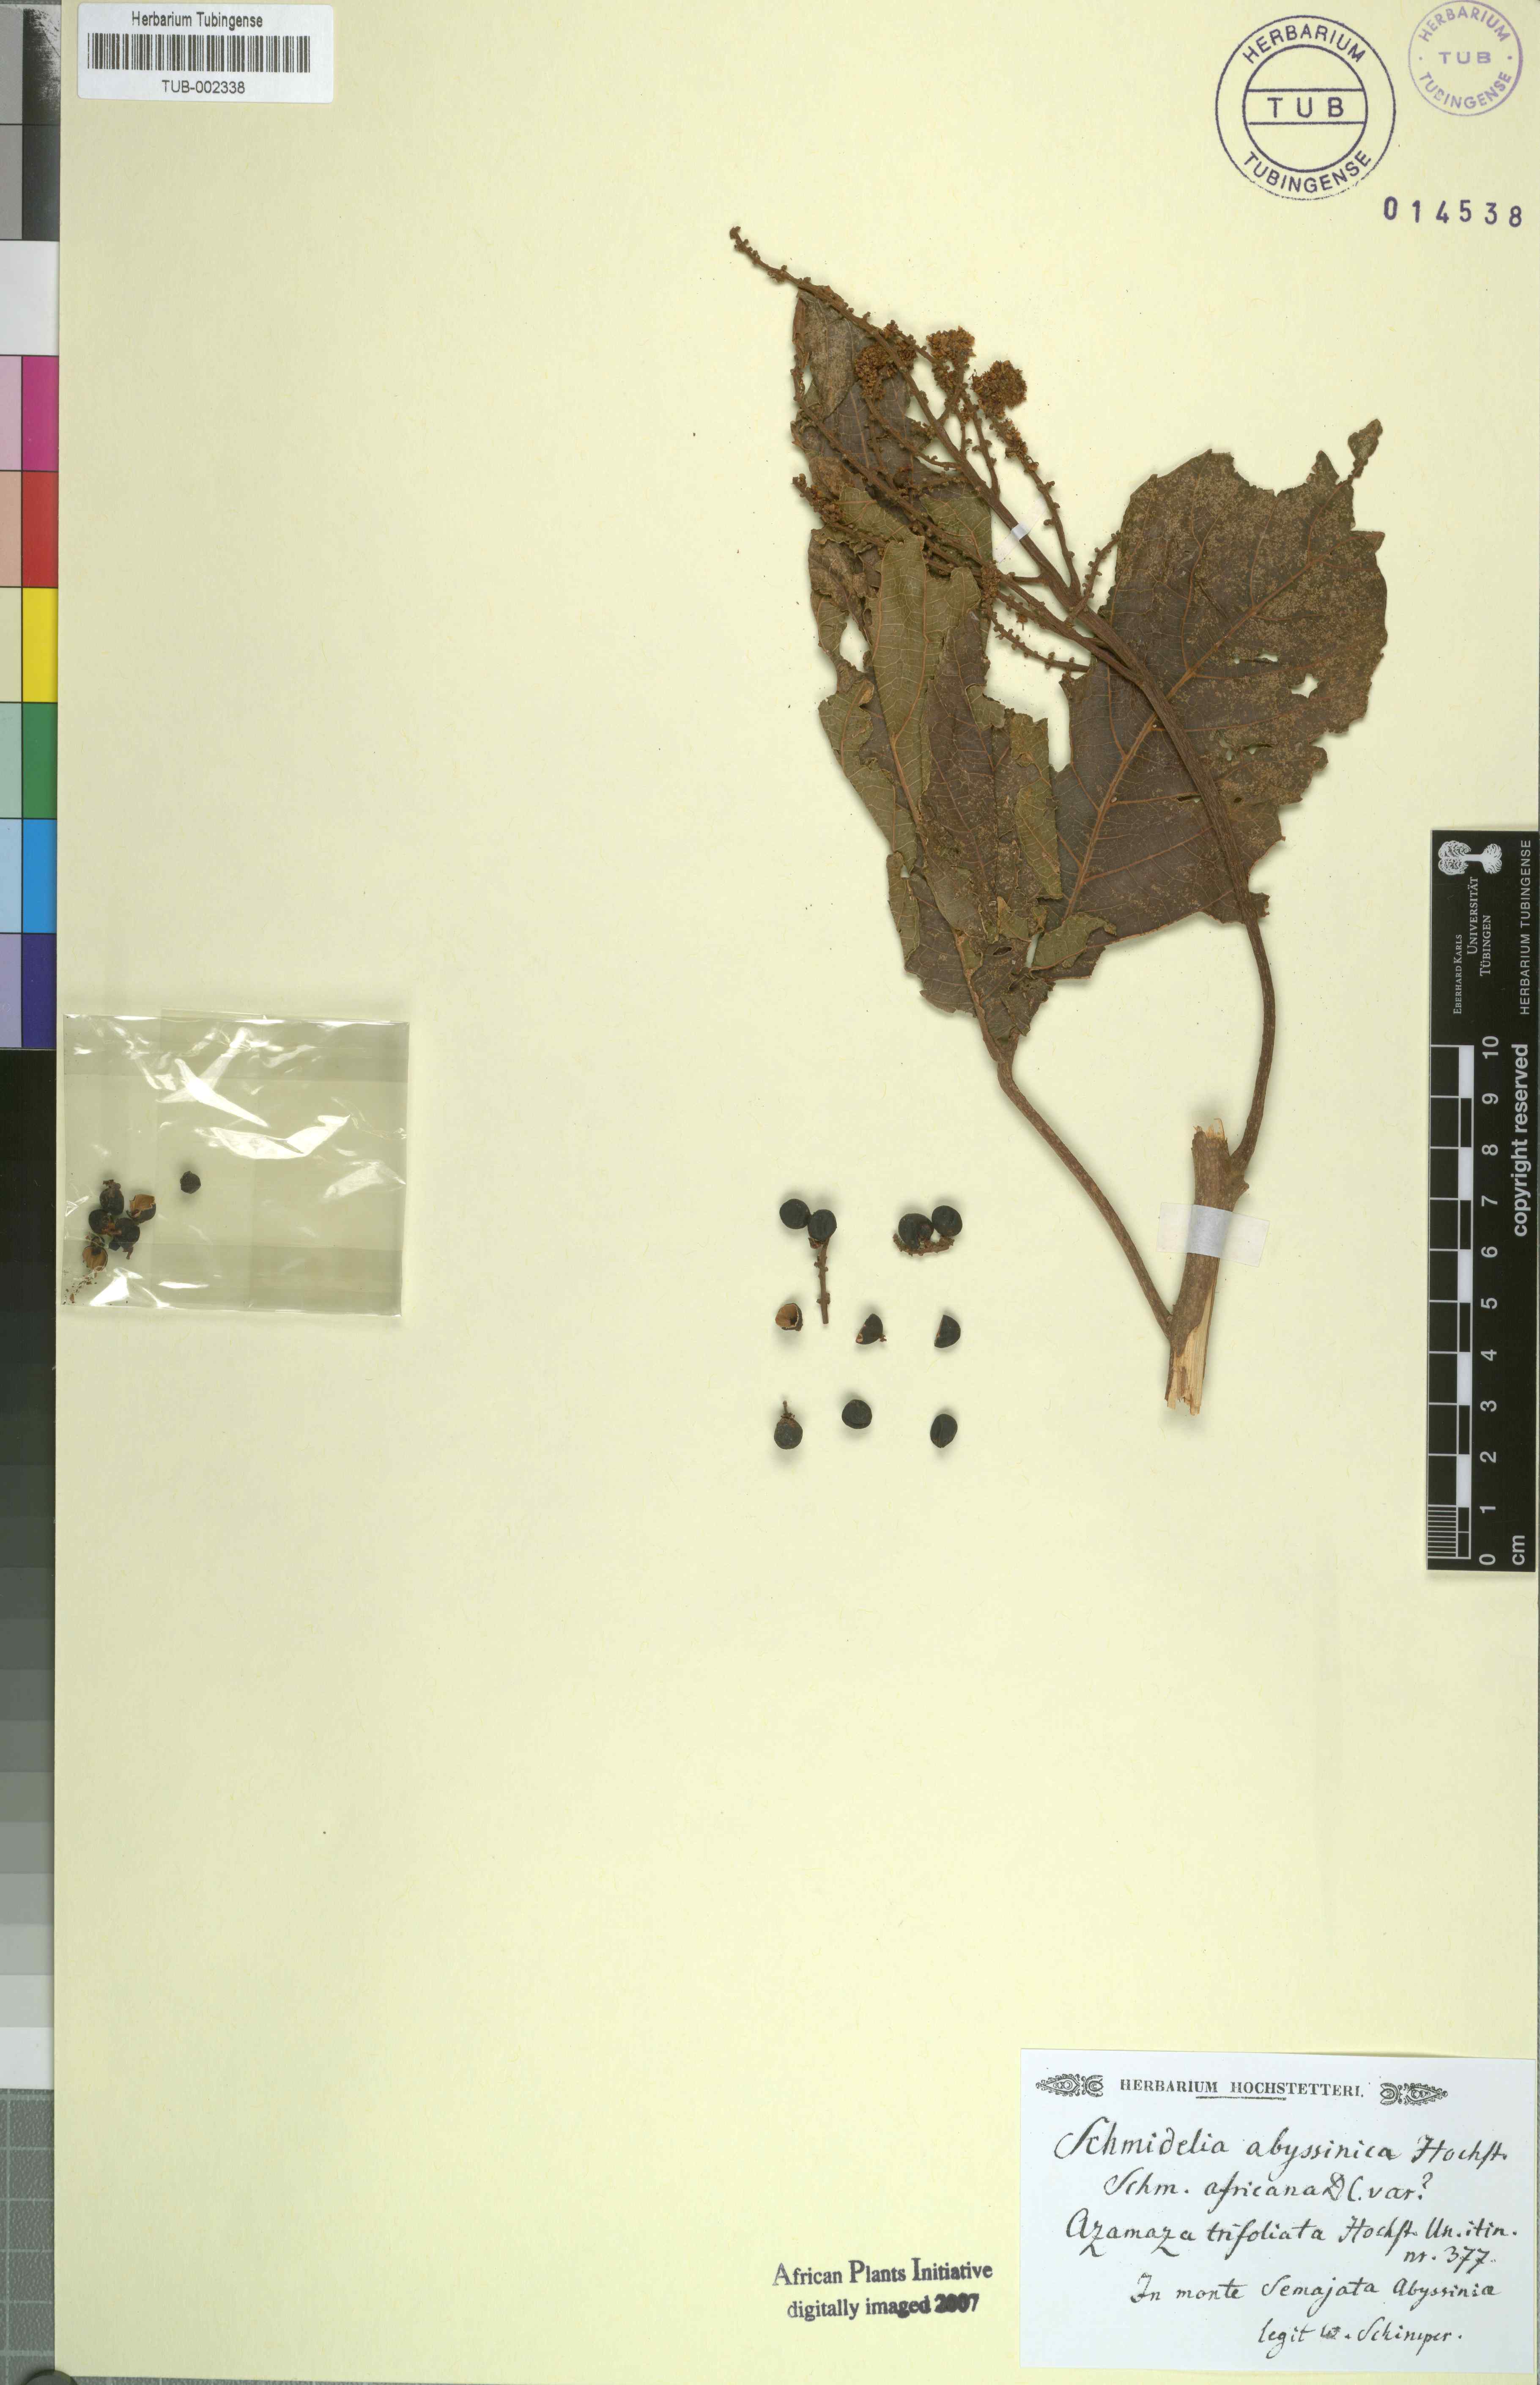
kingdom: Plantae
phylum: Tracheophyta
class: Magnoliopsida
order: Sapindales
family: Sapindaceae
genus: Allophylus
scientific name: Allophylus zeylanicus
